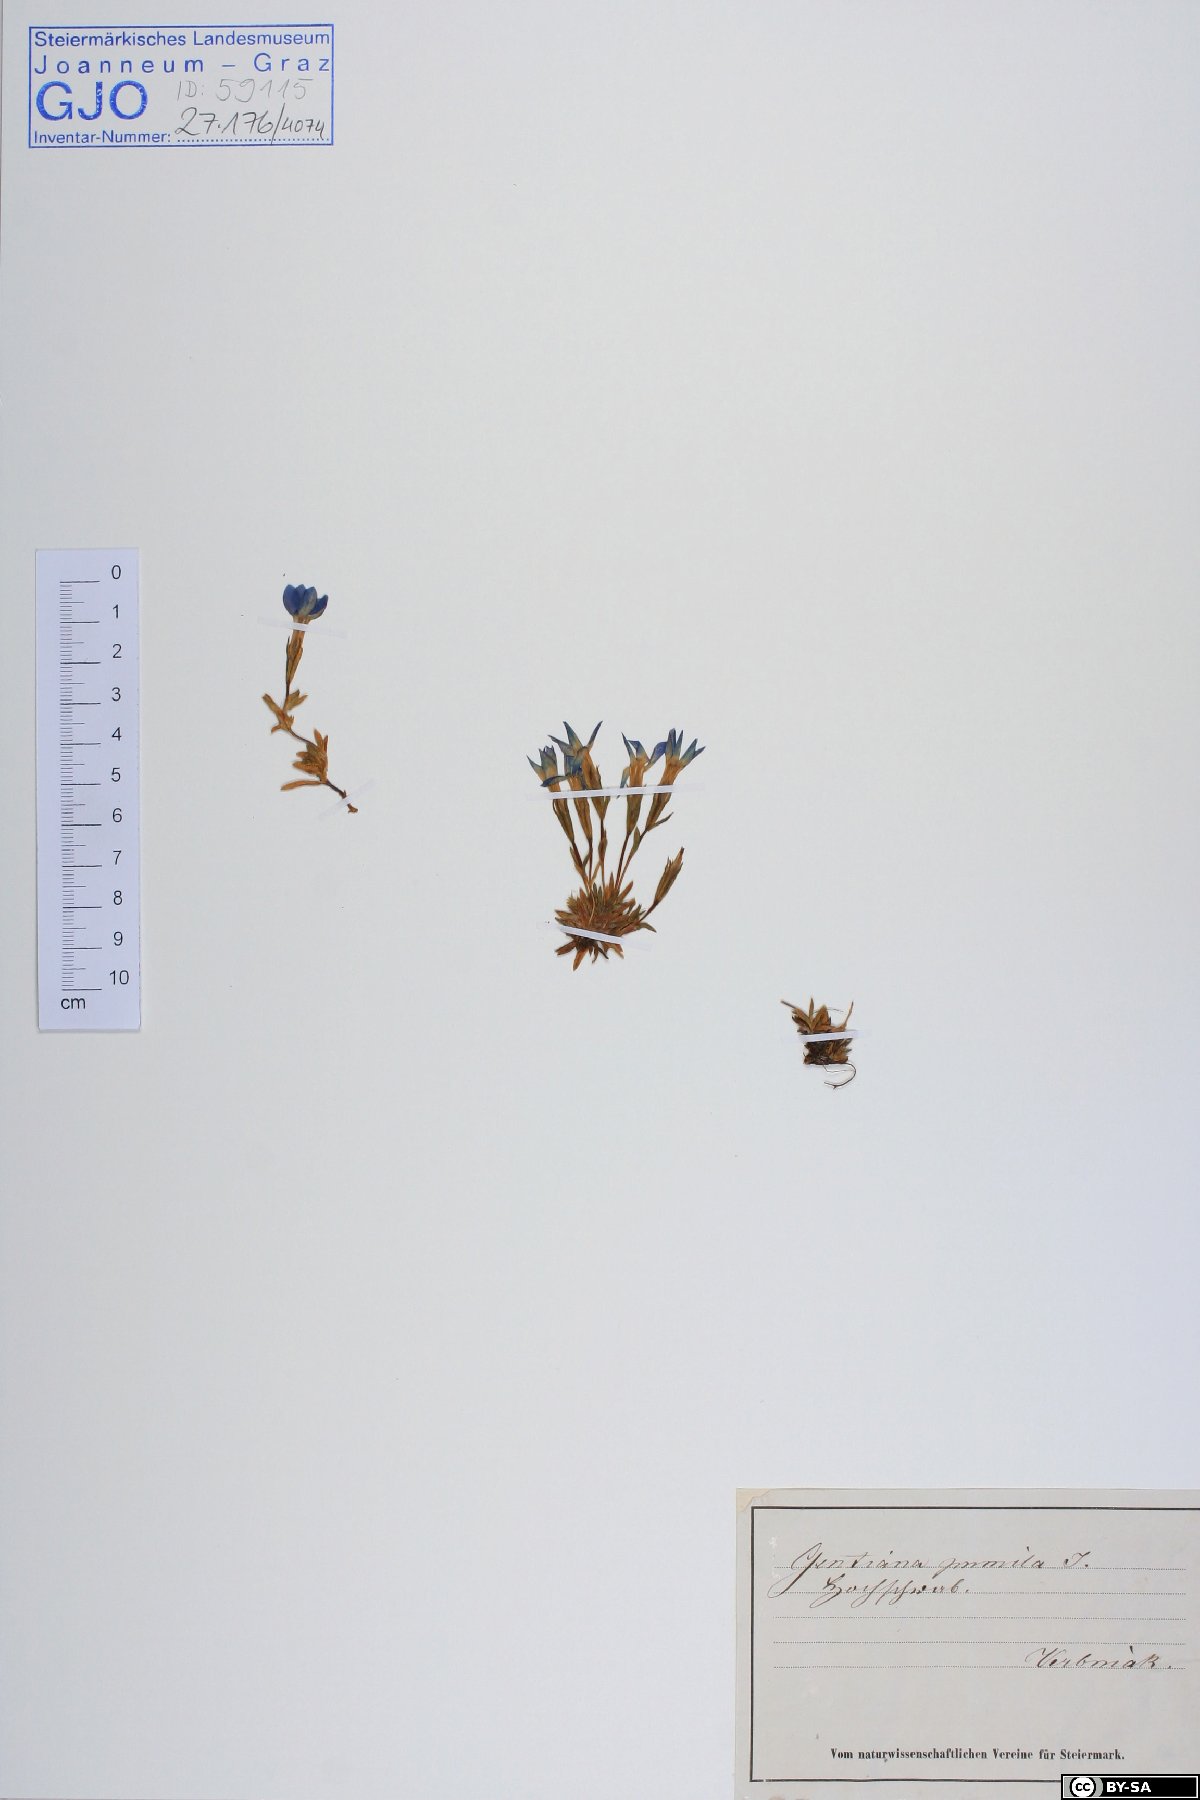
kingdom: Plantae
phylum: Tracheophyta
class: Magnoliopsida
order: Gentianales
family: Gentianaceae
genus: Gentiana
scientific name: Gentiana pumila
